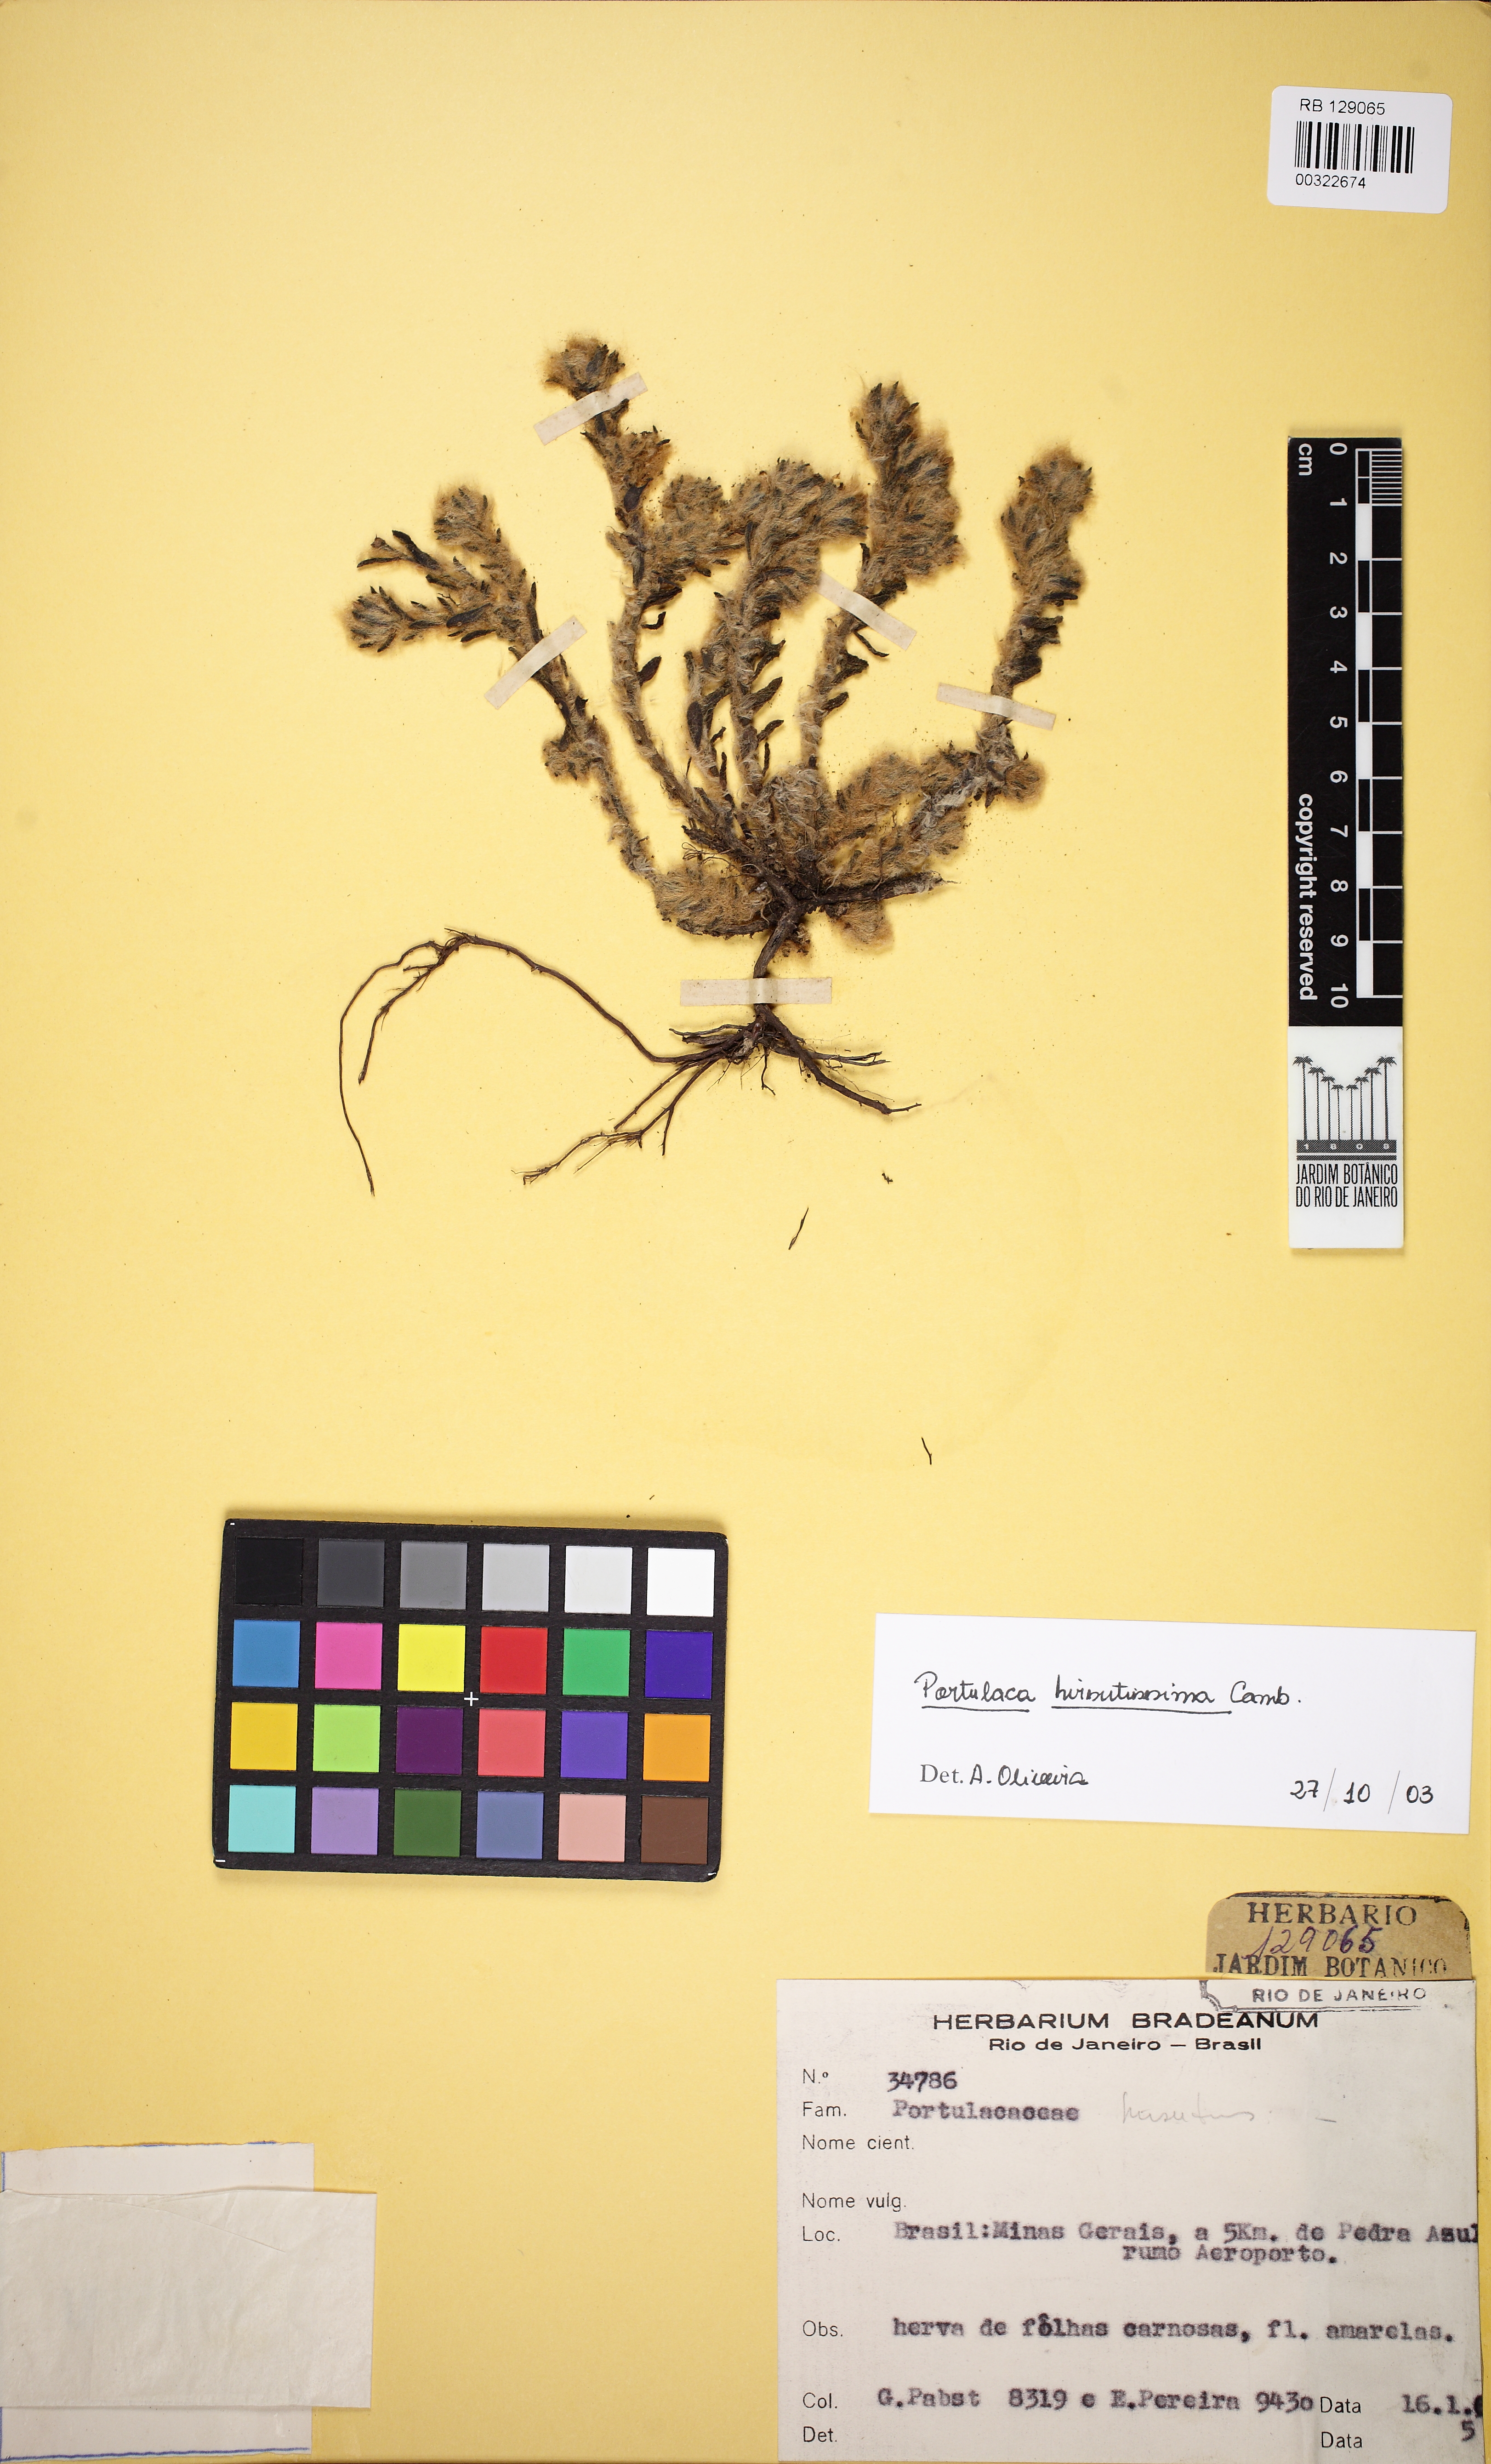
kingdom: Plantae
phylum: Tracheophyta
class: Magnoliopsida
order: Caryophyllales
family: Portulacaceae
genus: Portulaca
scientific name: Portulaca hirsutissima
